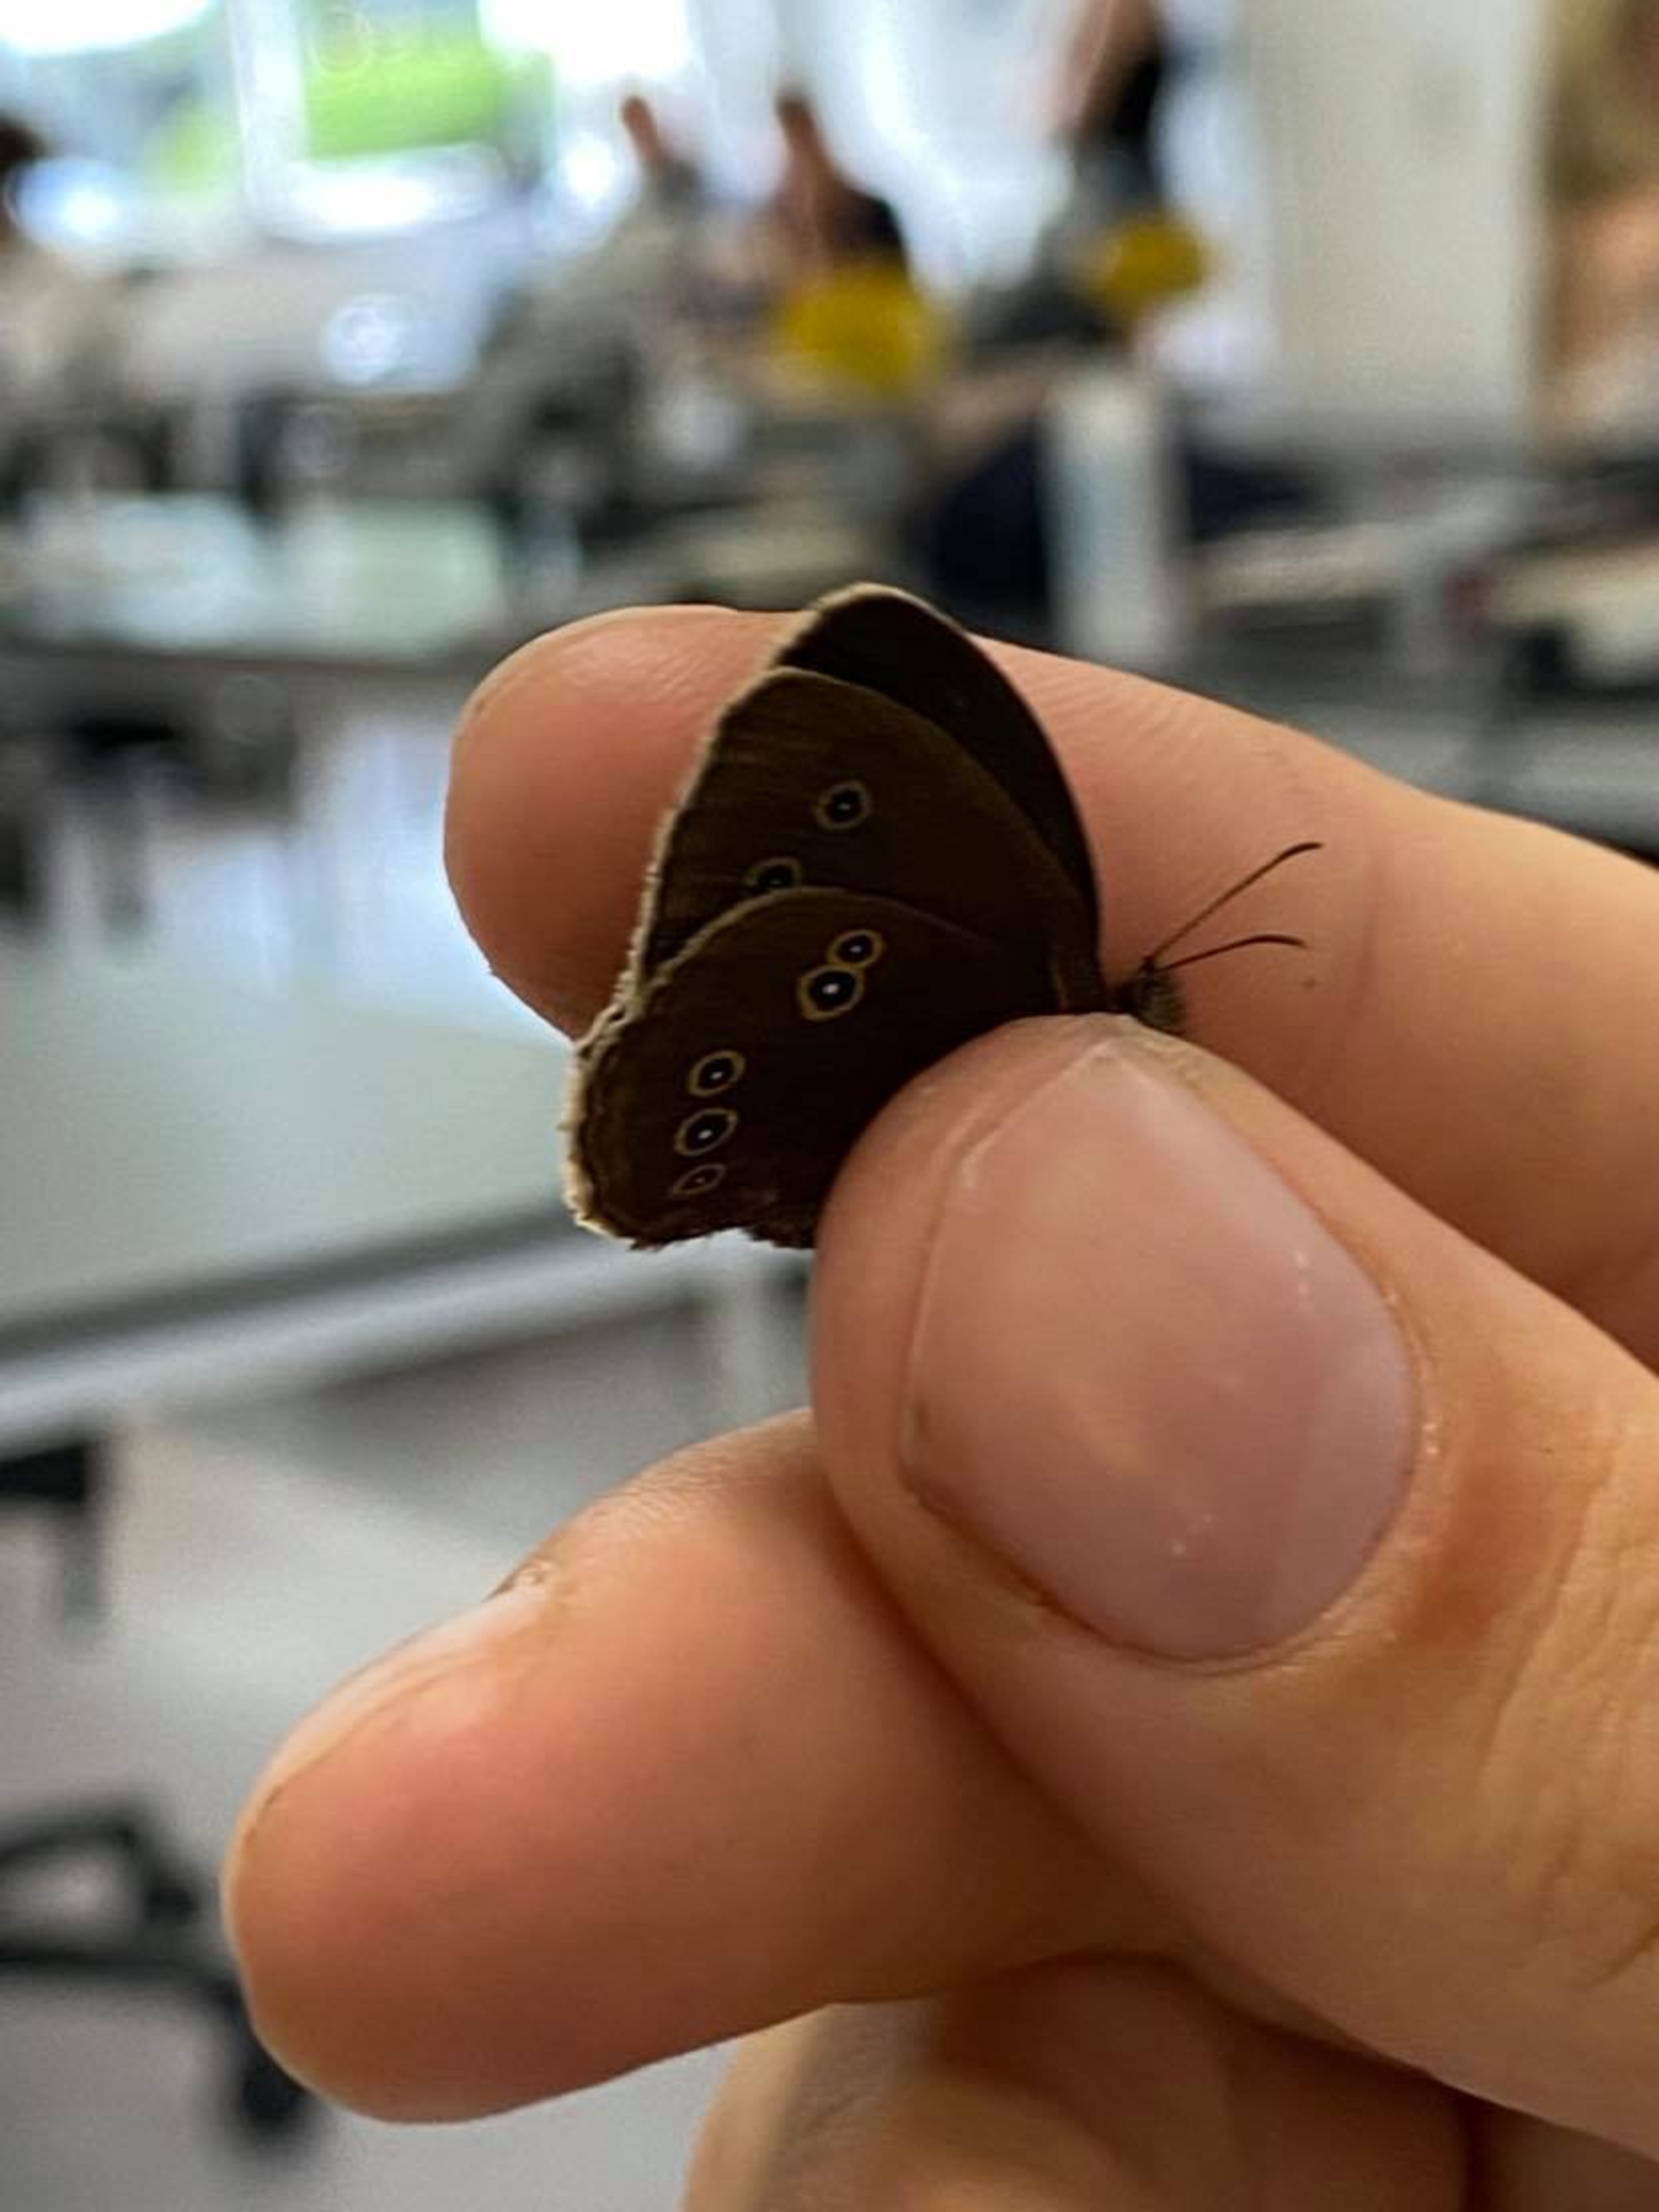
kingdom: Animalia
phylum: Arthropoda
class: Insecta
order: Lepidoptera
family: Nymphalidae
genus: Aphantopus
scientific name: Aphantopus hyperantus
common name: Engrandøje
